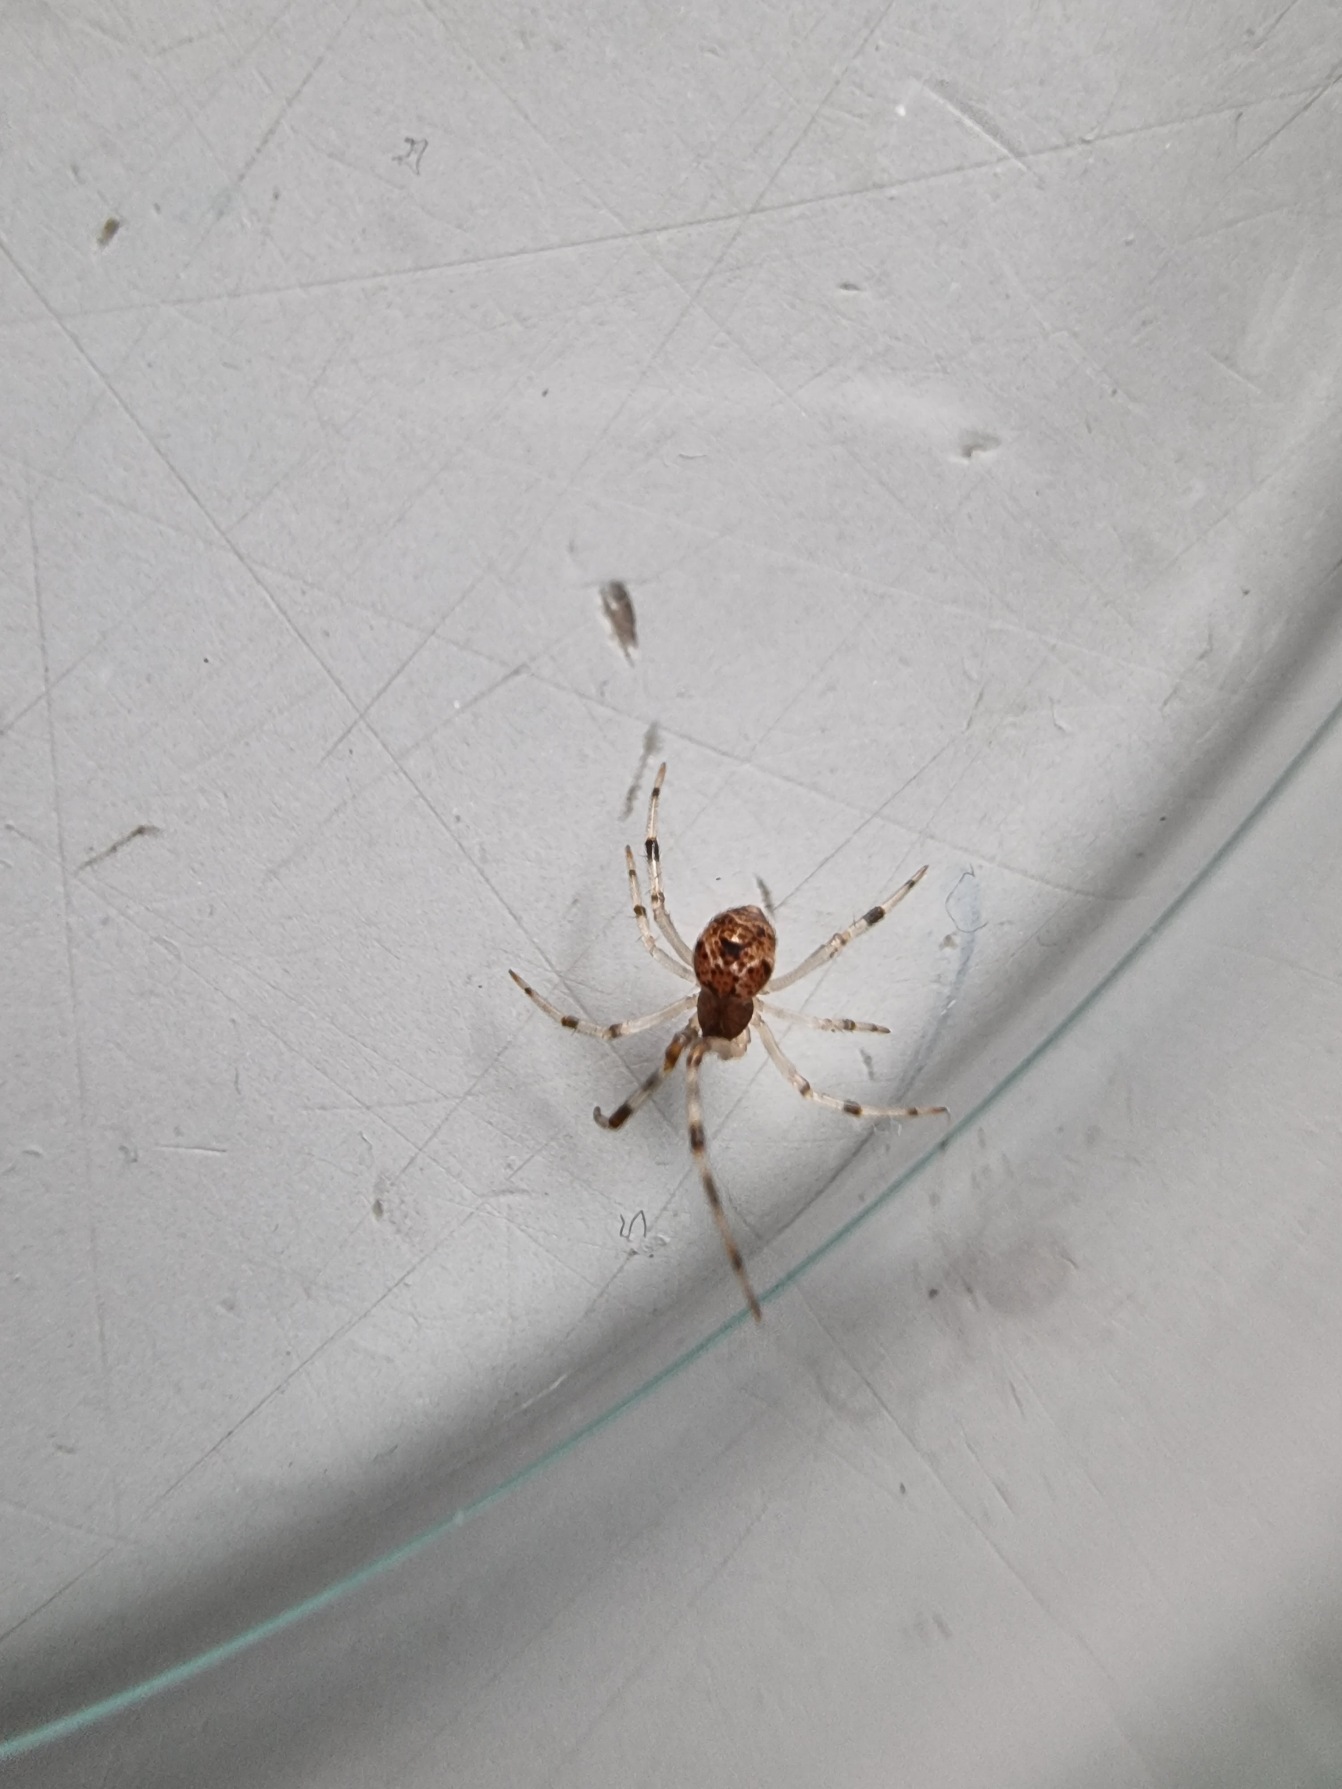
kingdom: Animalia
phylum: Arthropoda
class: Arachnida
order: Araneae
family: Theridiidae
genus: Parasteatoda
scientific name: Parasteatoda tepidariorum
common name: Væksthusspinder
